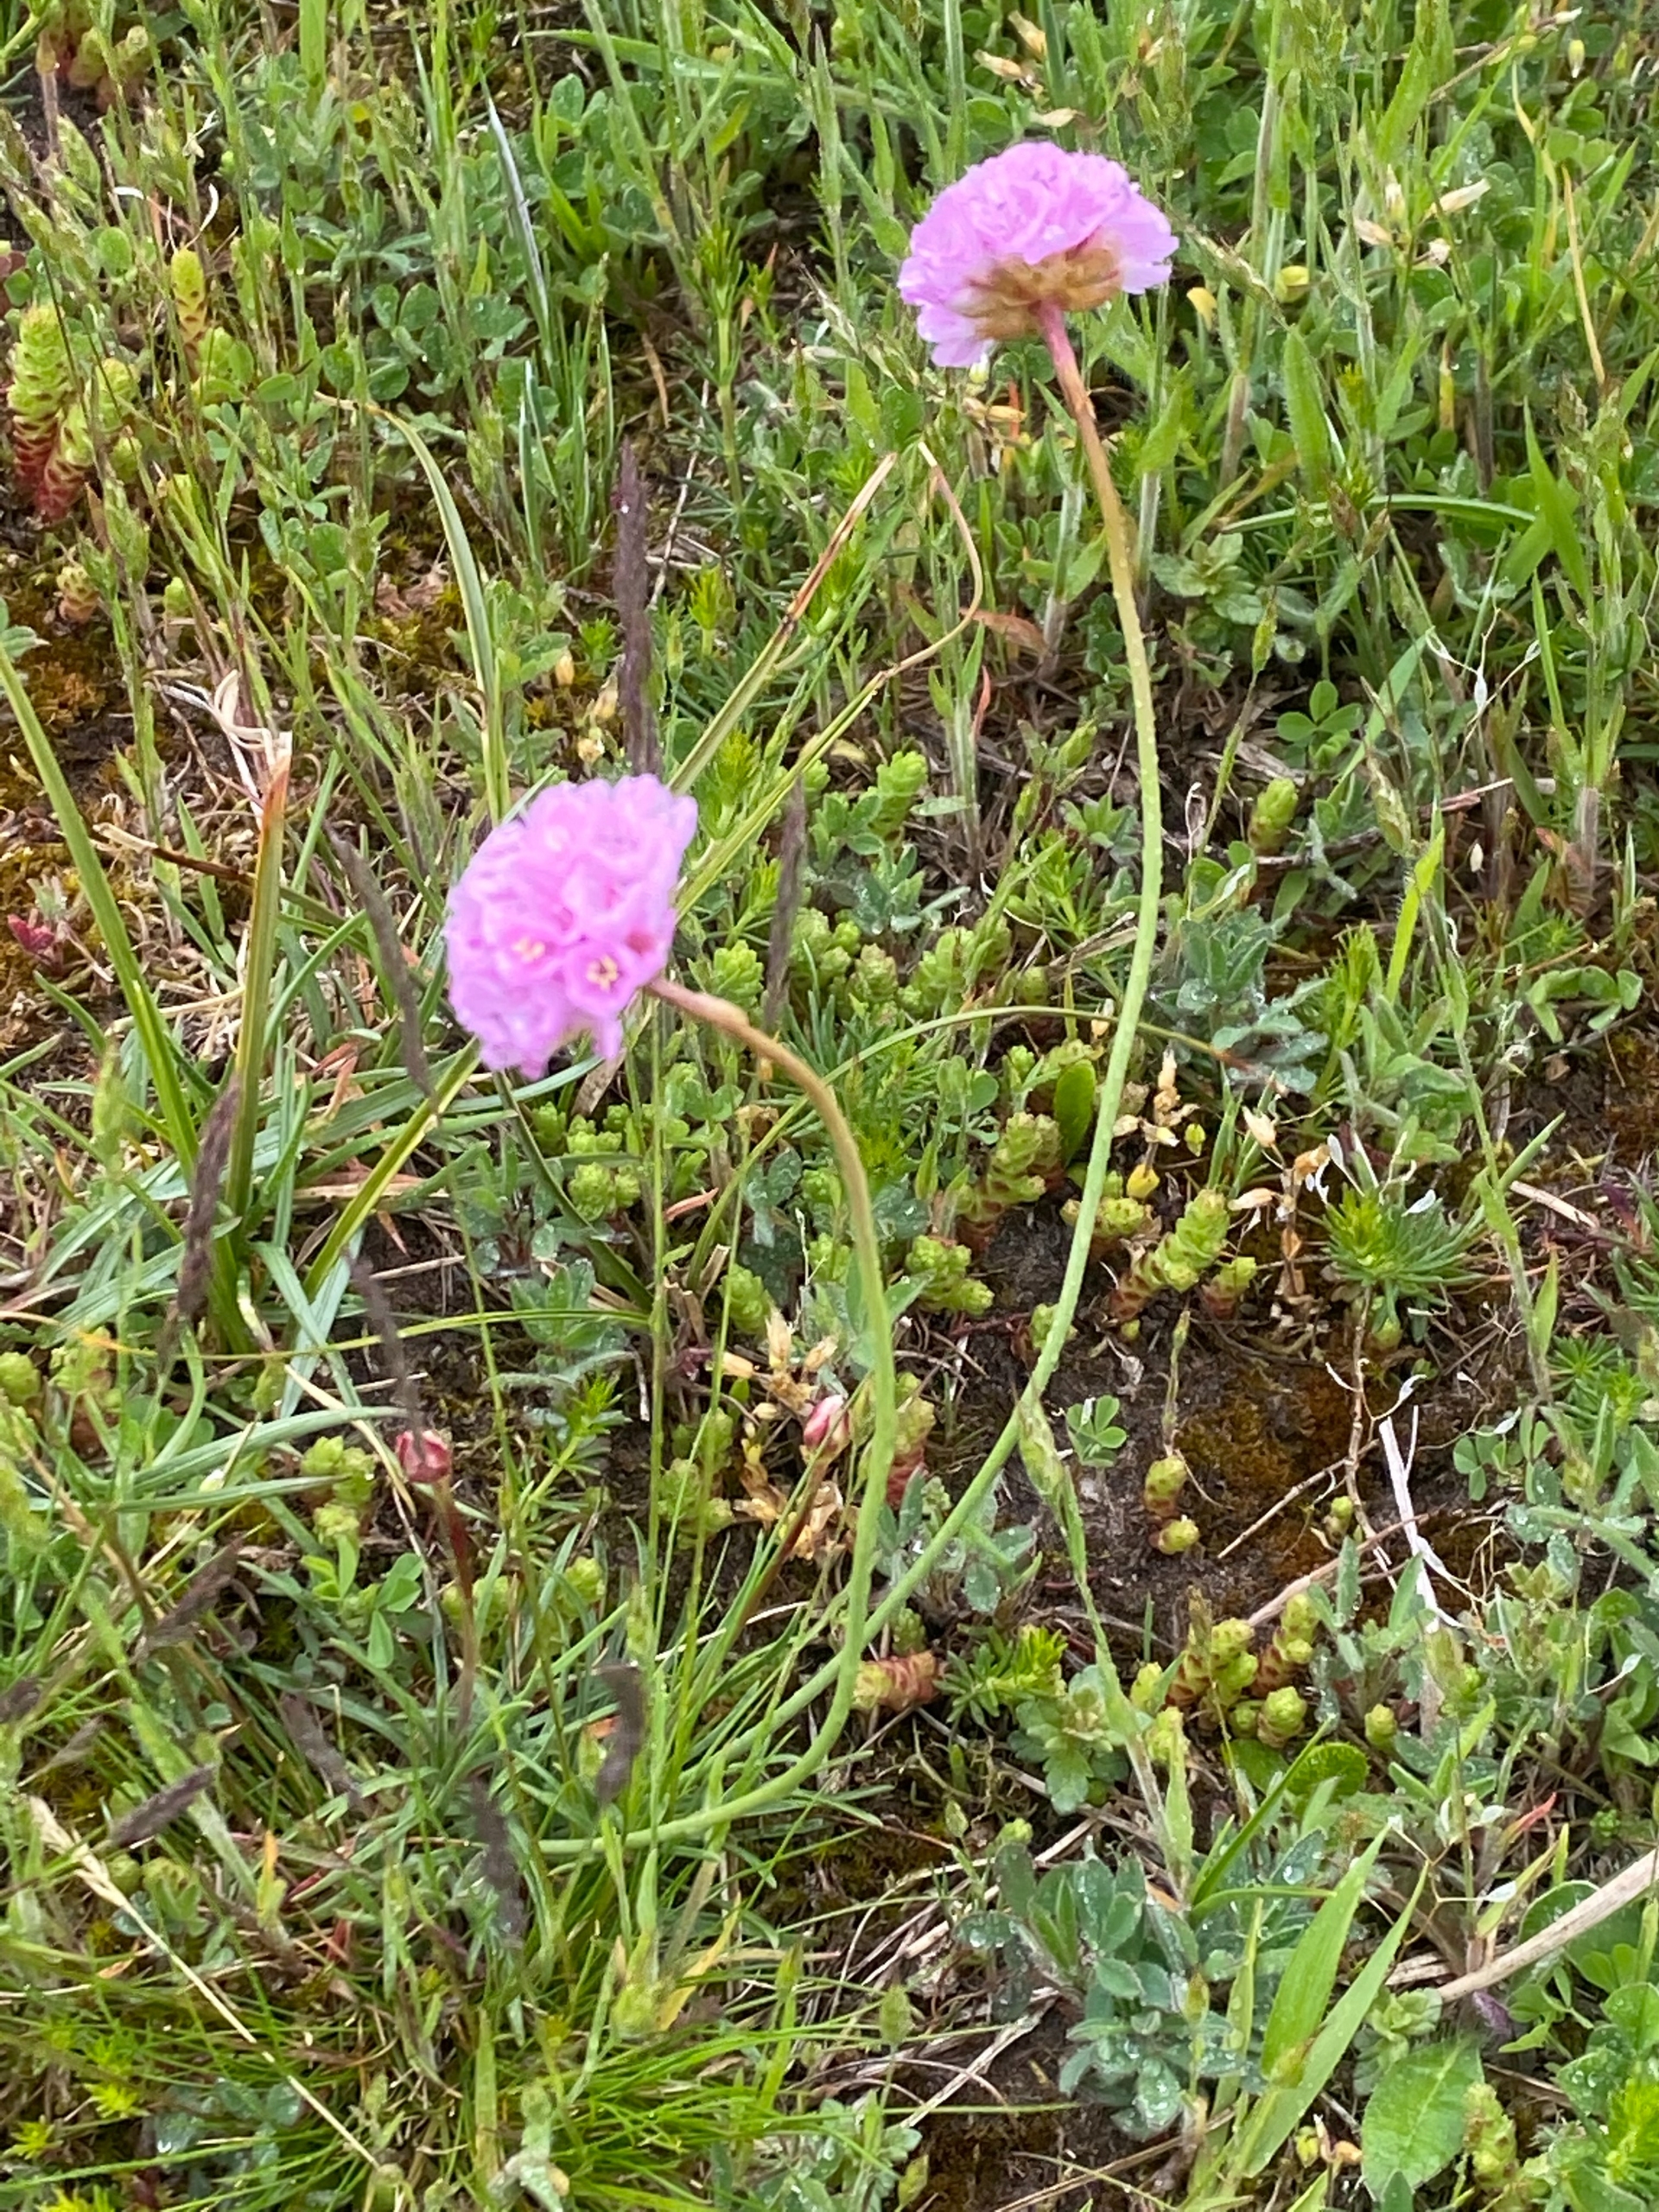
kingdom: Plantae
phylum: Tracheophyta
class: Magnoliopsida
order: Caryophyllales
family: Plumbaginaceae
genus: Armeria
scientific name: Armeria maritima
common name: Engelskgræs
